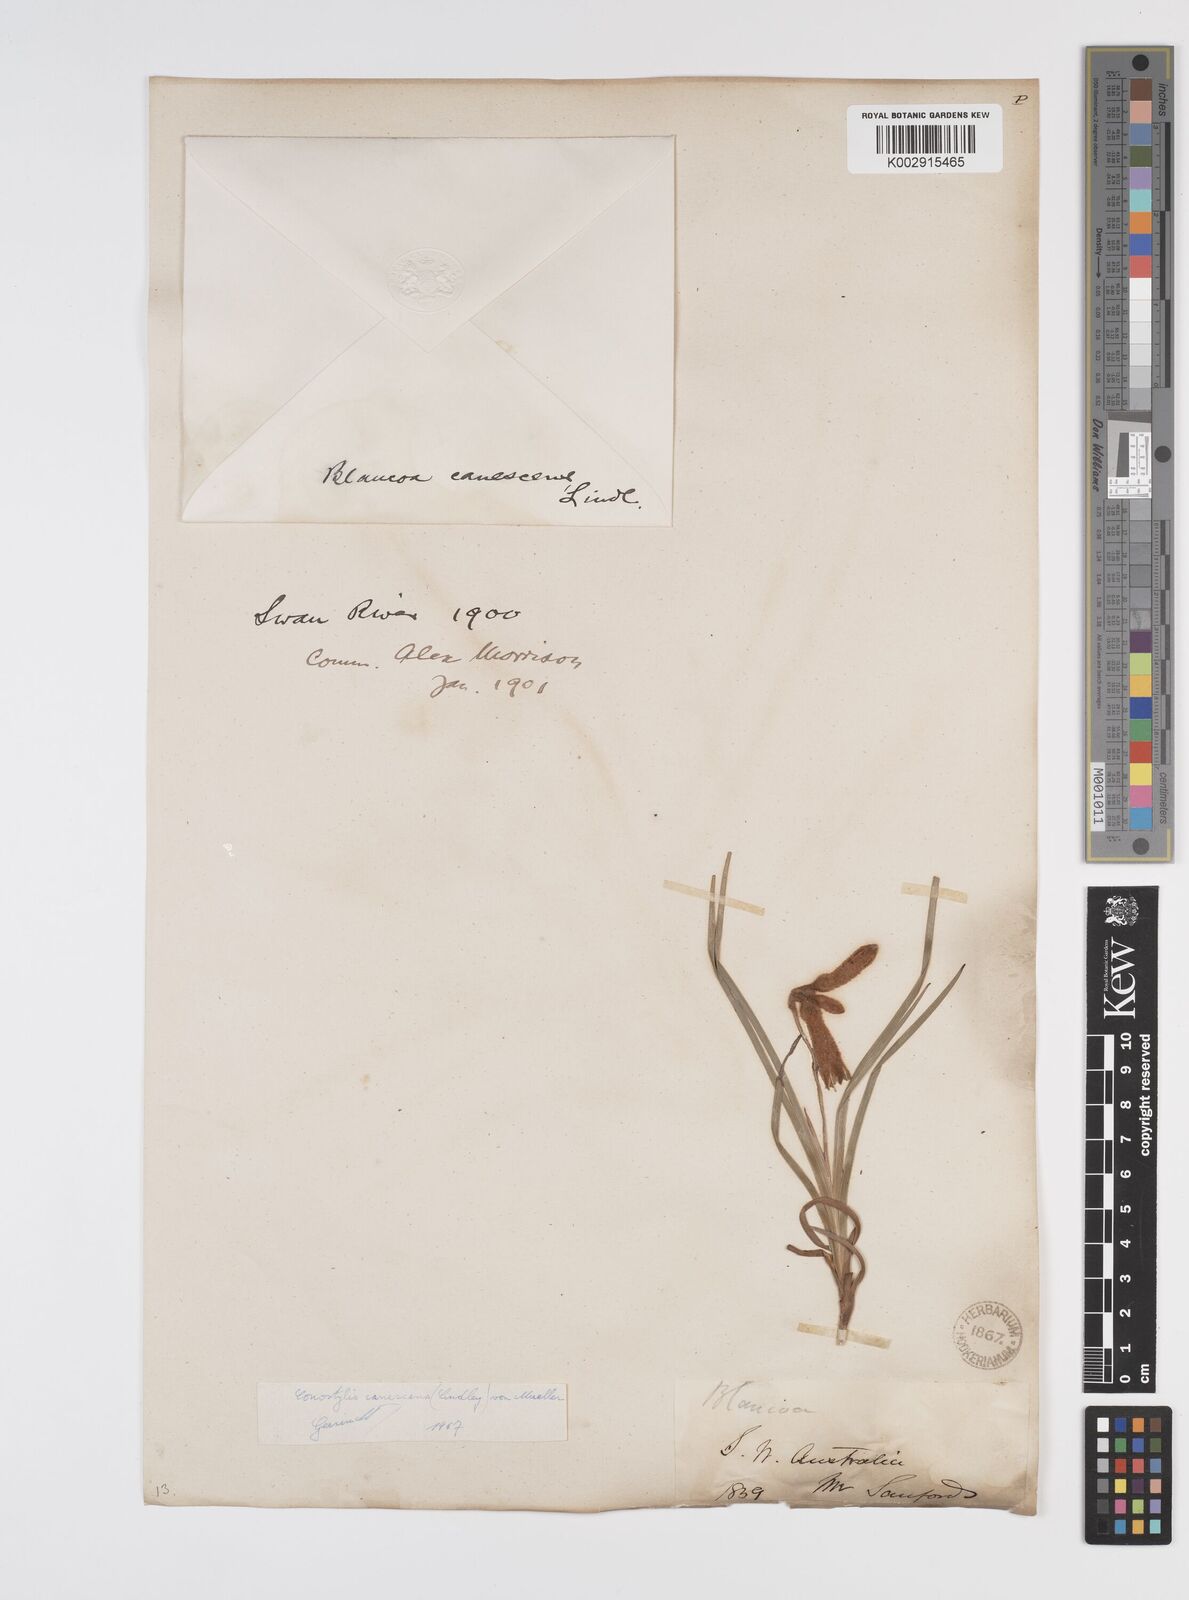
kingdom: Plantae
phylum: Tracheophyta
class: Liliopsida
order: Commelinales
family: Haemodoraceae
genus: Blancoa
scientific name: Blancoa canescens
